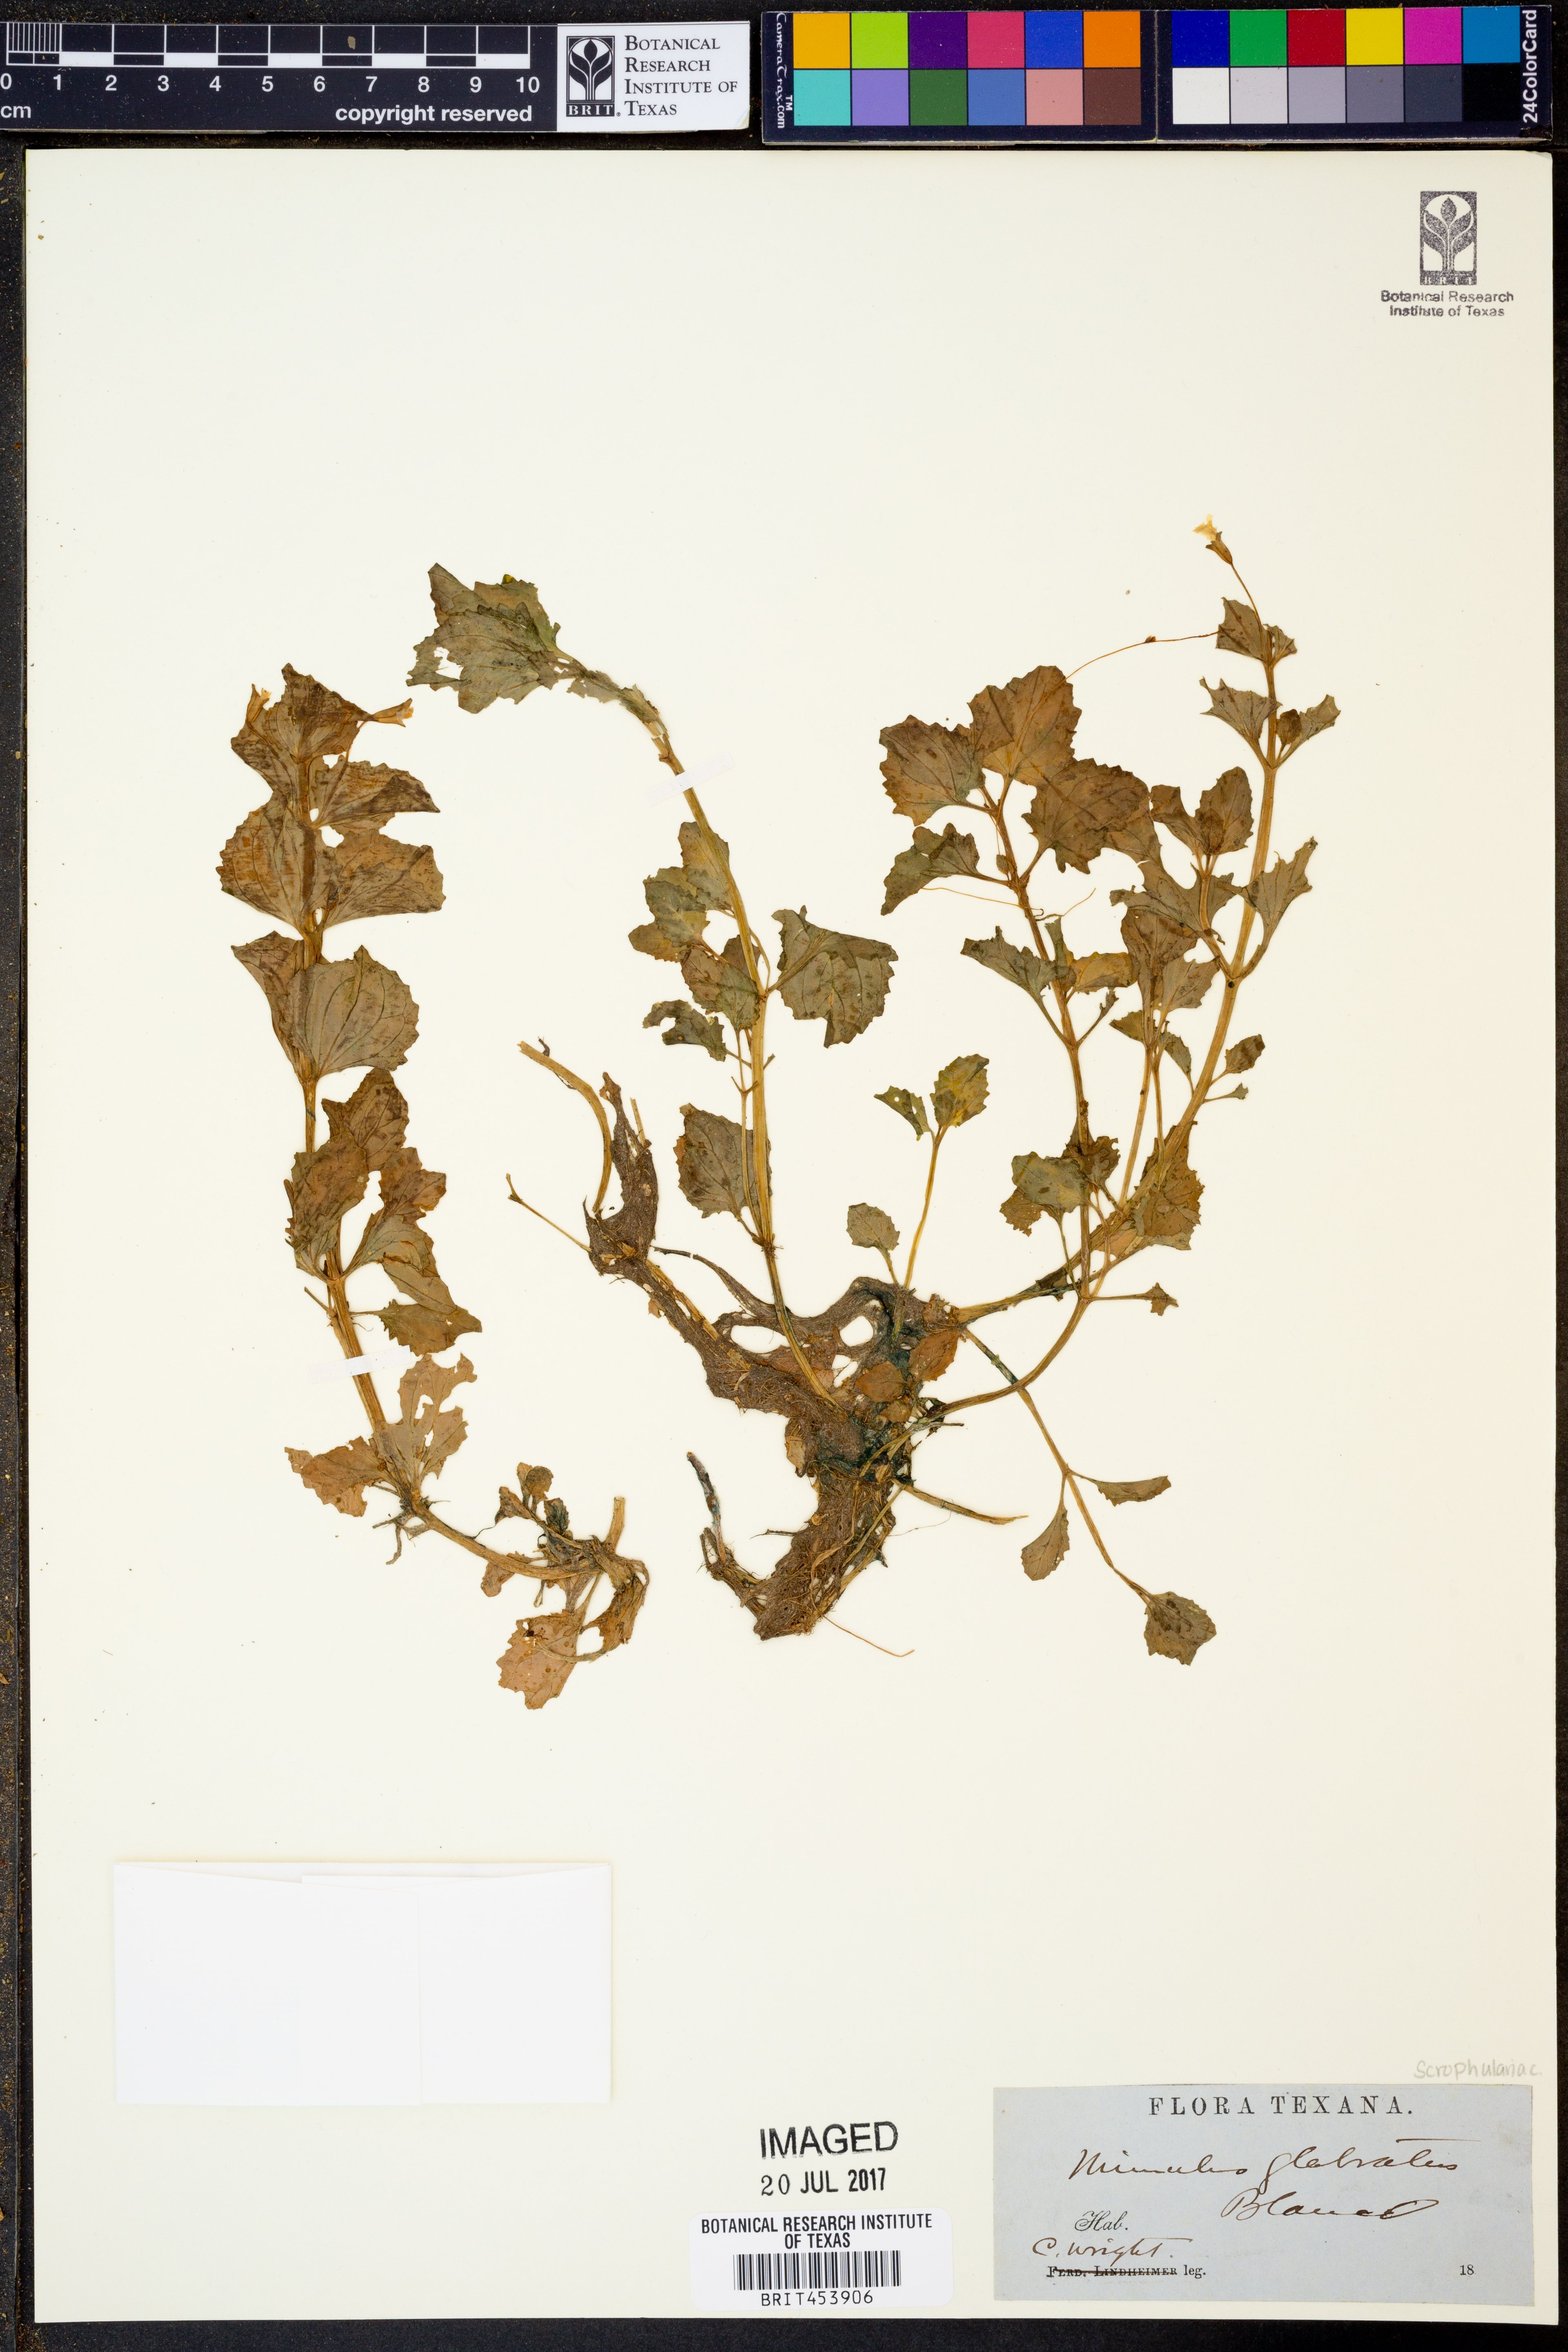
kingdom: Plantae
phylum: Tracheophyta
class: Magnoliopsida
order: Lamiales
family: Phrymaceae
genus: Erythranthe
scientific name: Erythranthe glabrata
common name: Round-leaved monkeyflower
